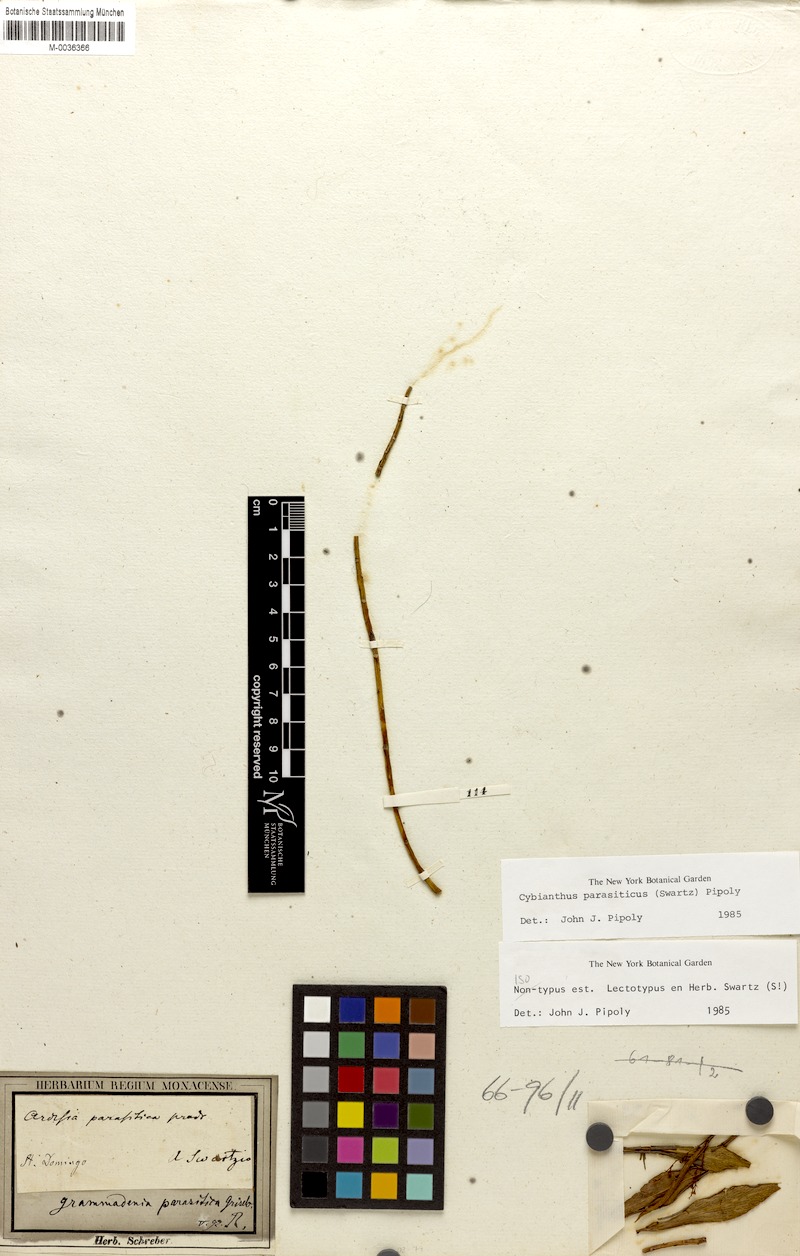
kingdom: Plantae
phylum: Tracheophyta
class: Magnoliopsida
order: Ericales
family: Primulaceae
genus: Cybianthus
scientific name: Cybianthus parasiticus
